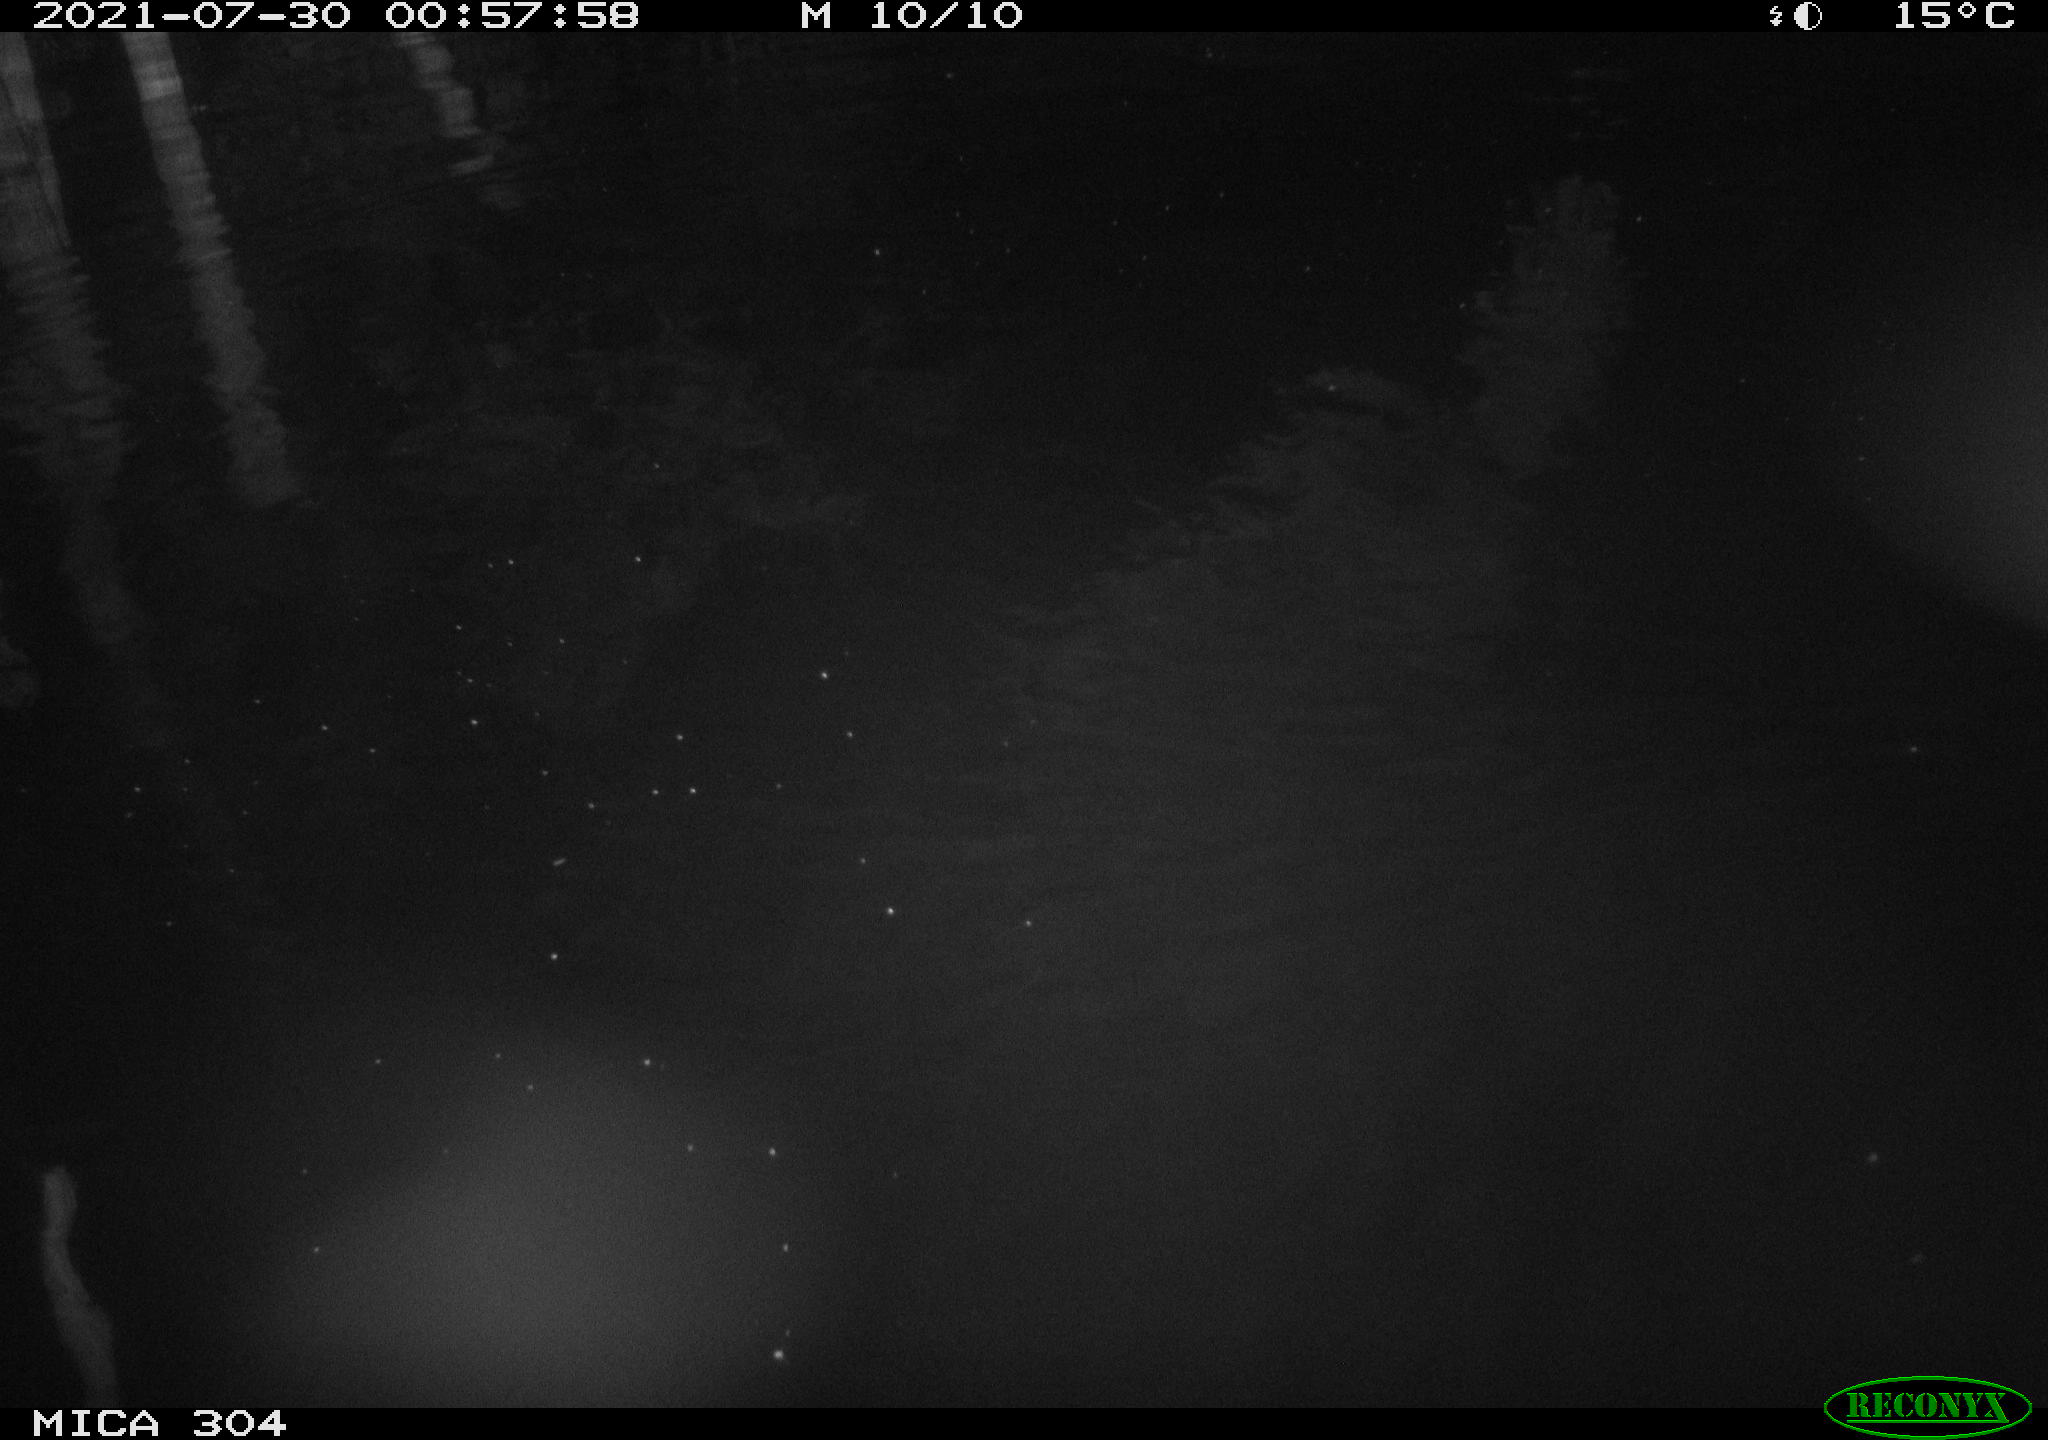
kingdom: Animalia
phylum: Chordata
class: Mammalia
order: Rodentia
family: Muridae
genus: Rattus
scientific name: Rattus norvegicus
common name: Brown rat
